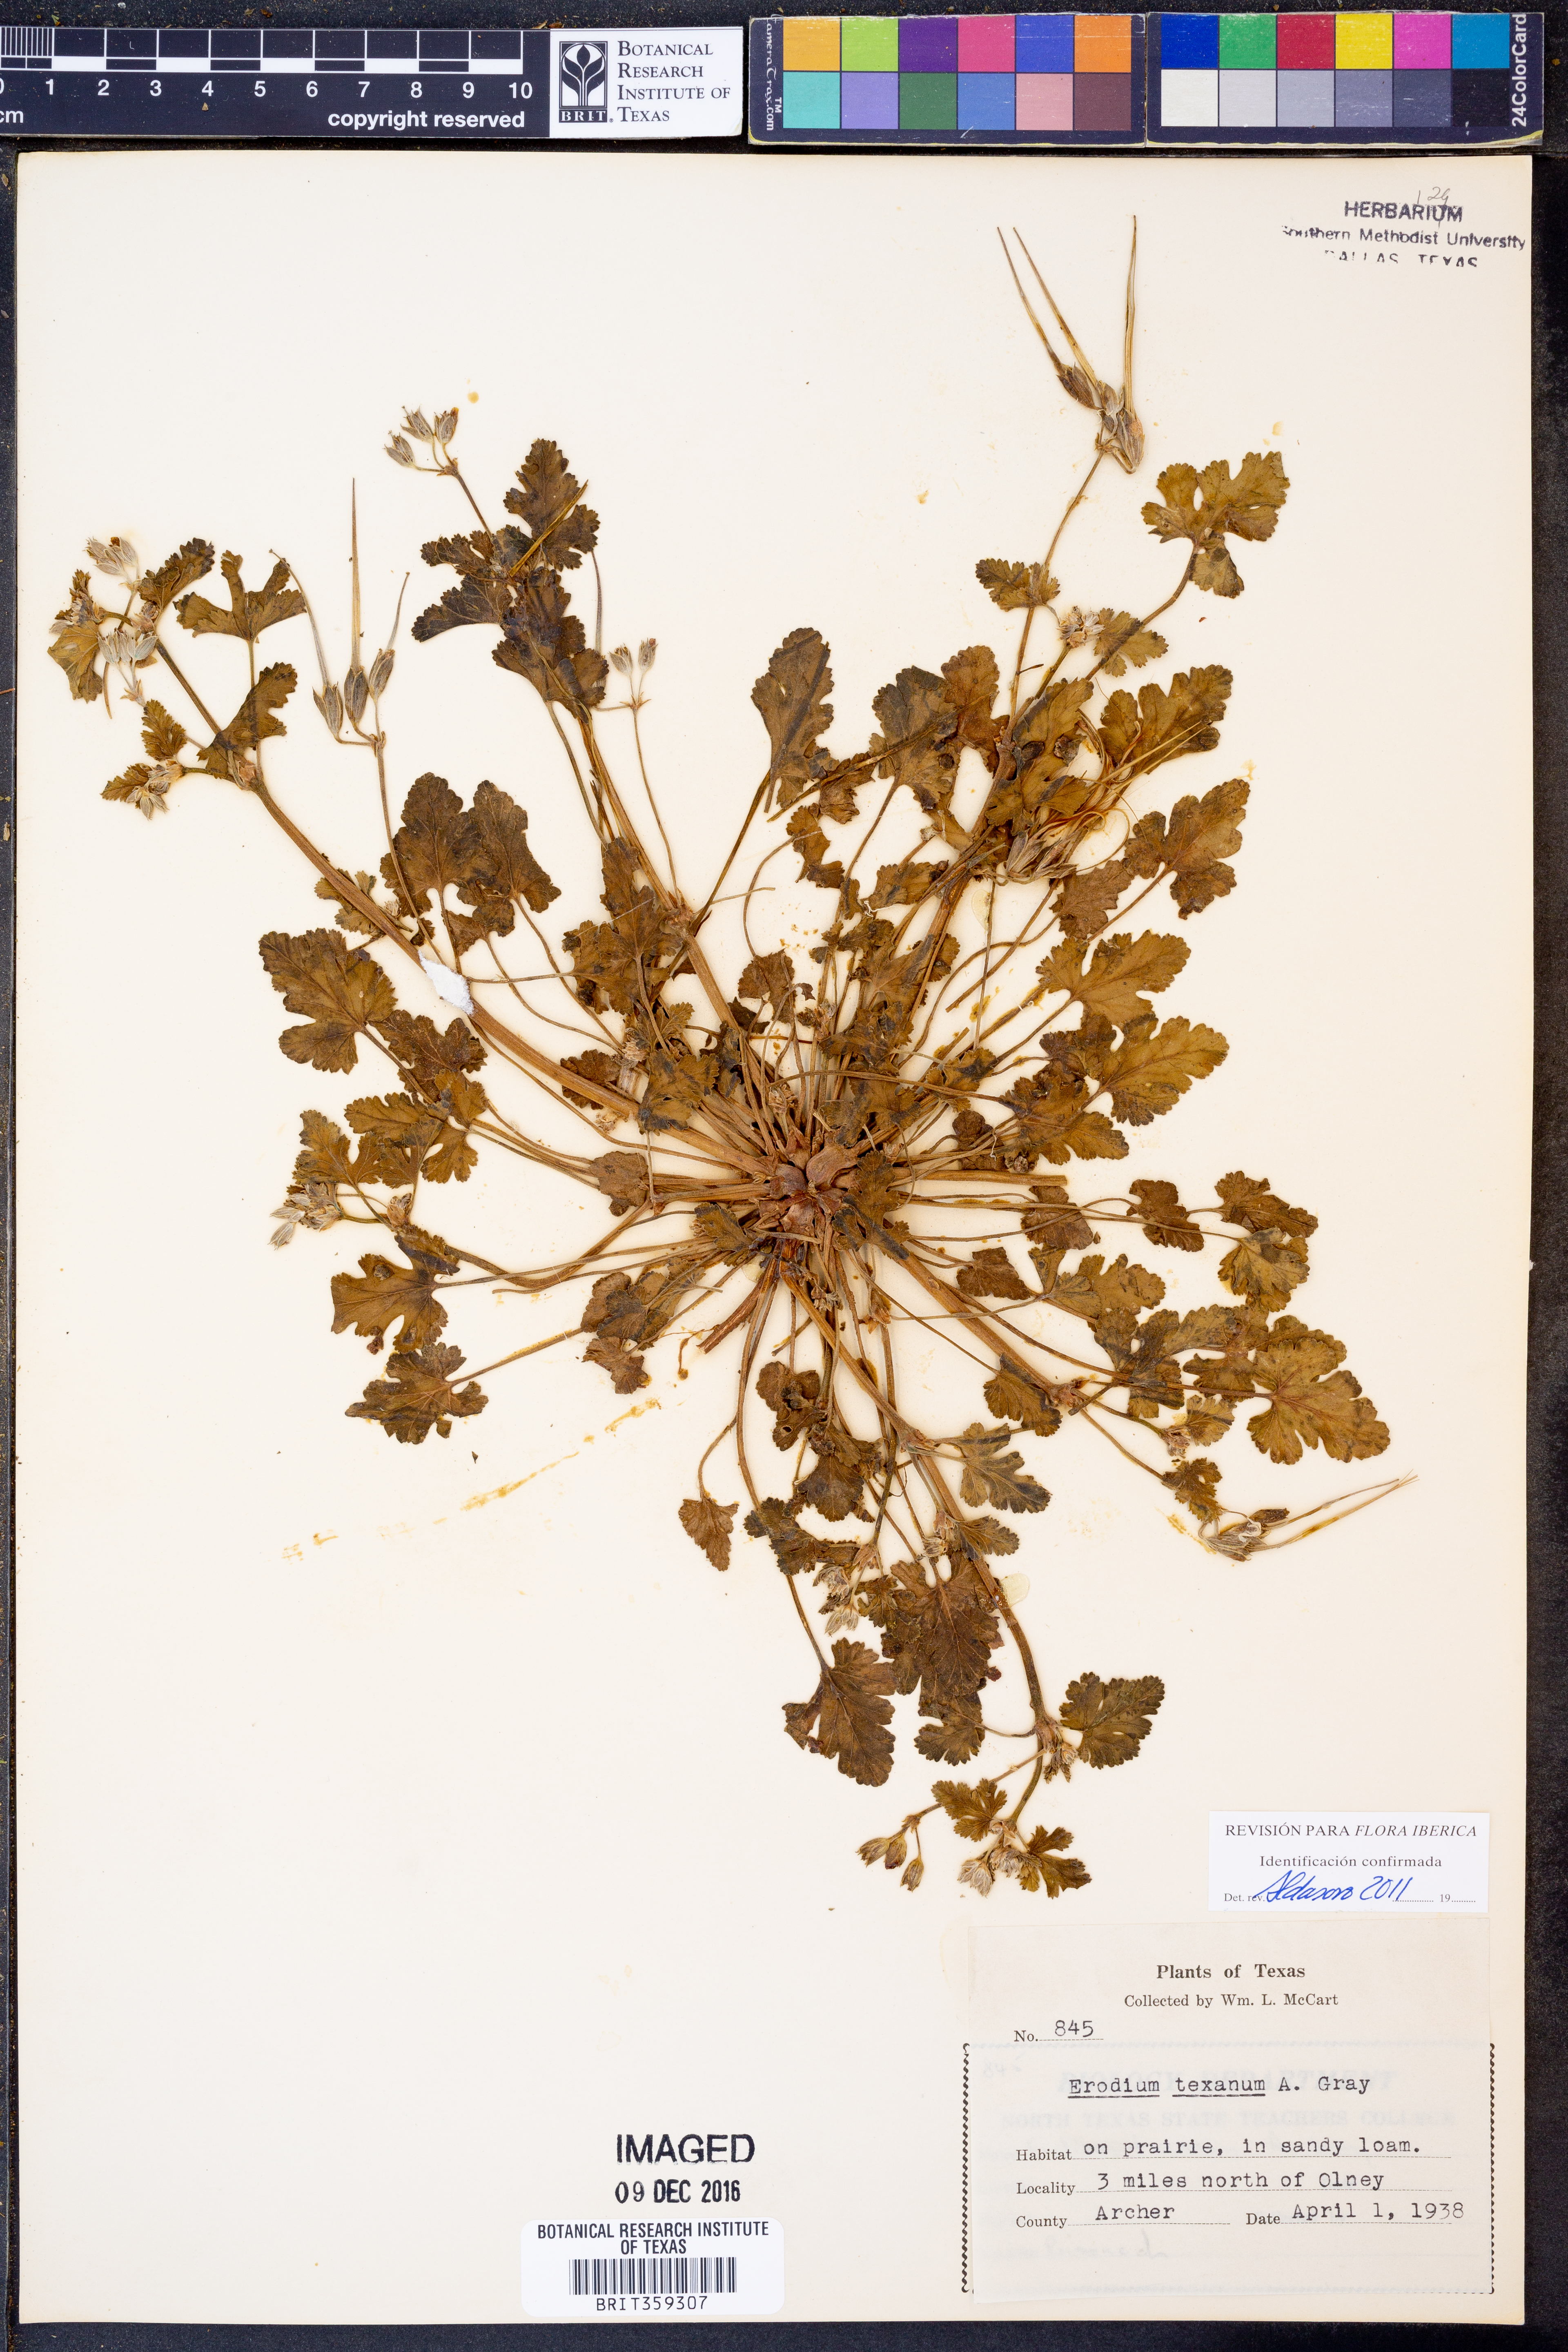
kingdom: Plantae
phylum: Tracheophyta
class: Magnoliopsida
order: Geraniales
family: Geraniaceae
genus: Erodium
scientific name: Erodium texanum
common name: Texas stork's-bill
